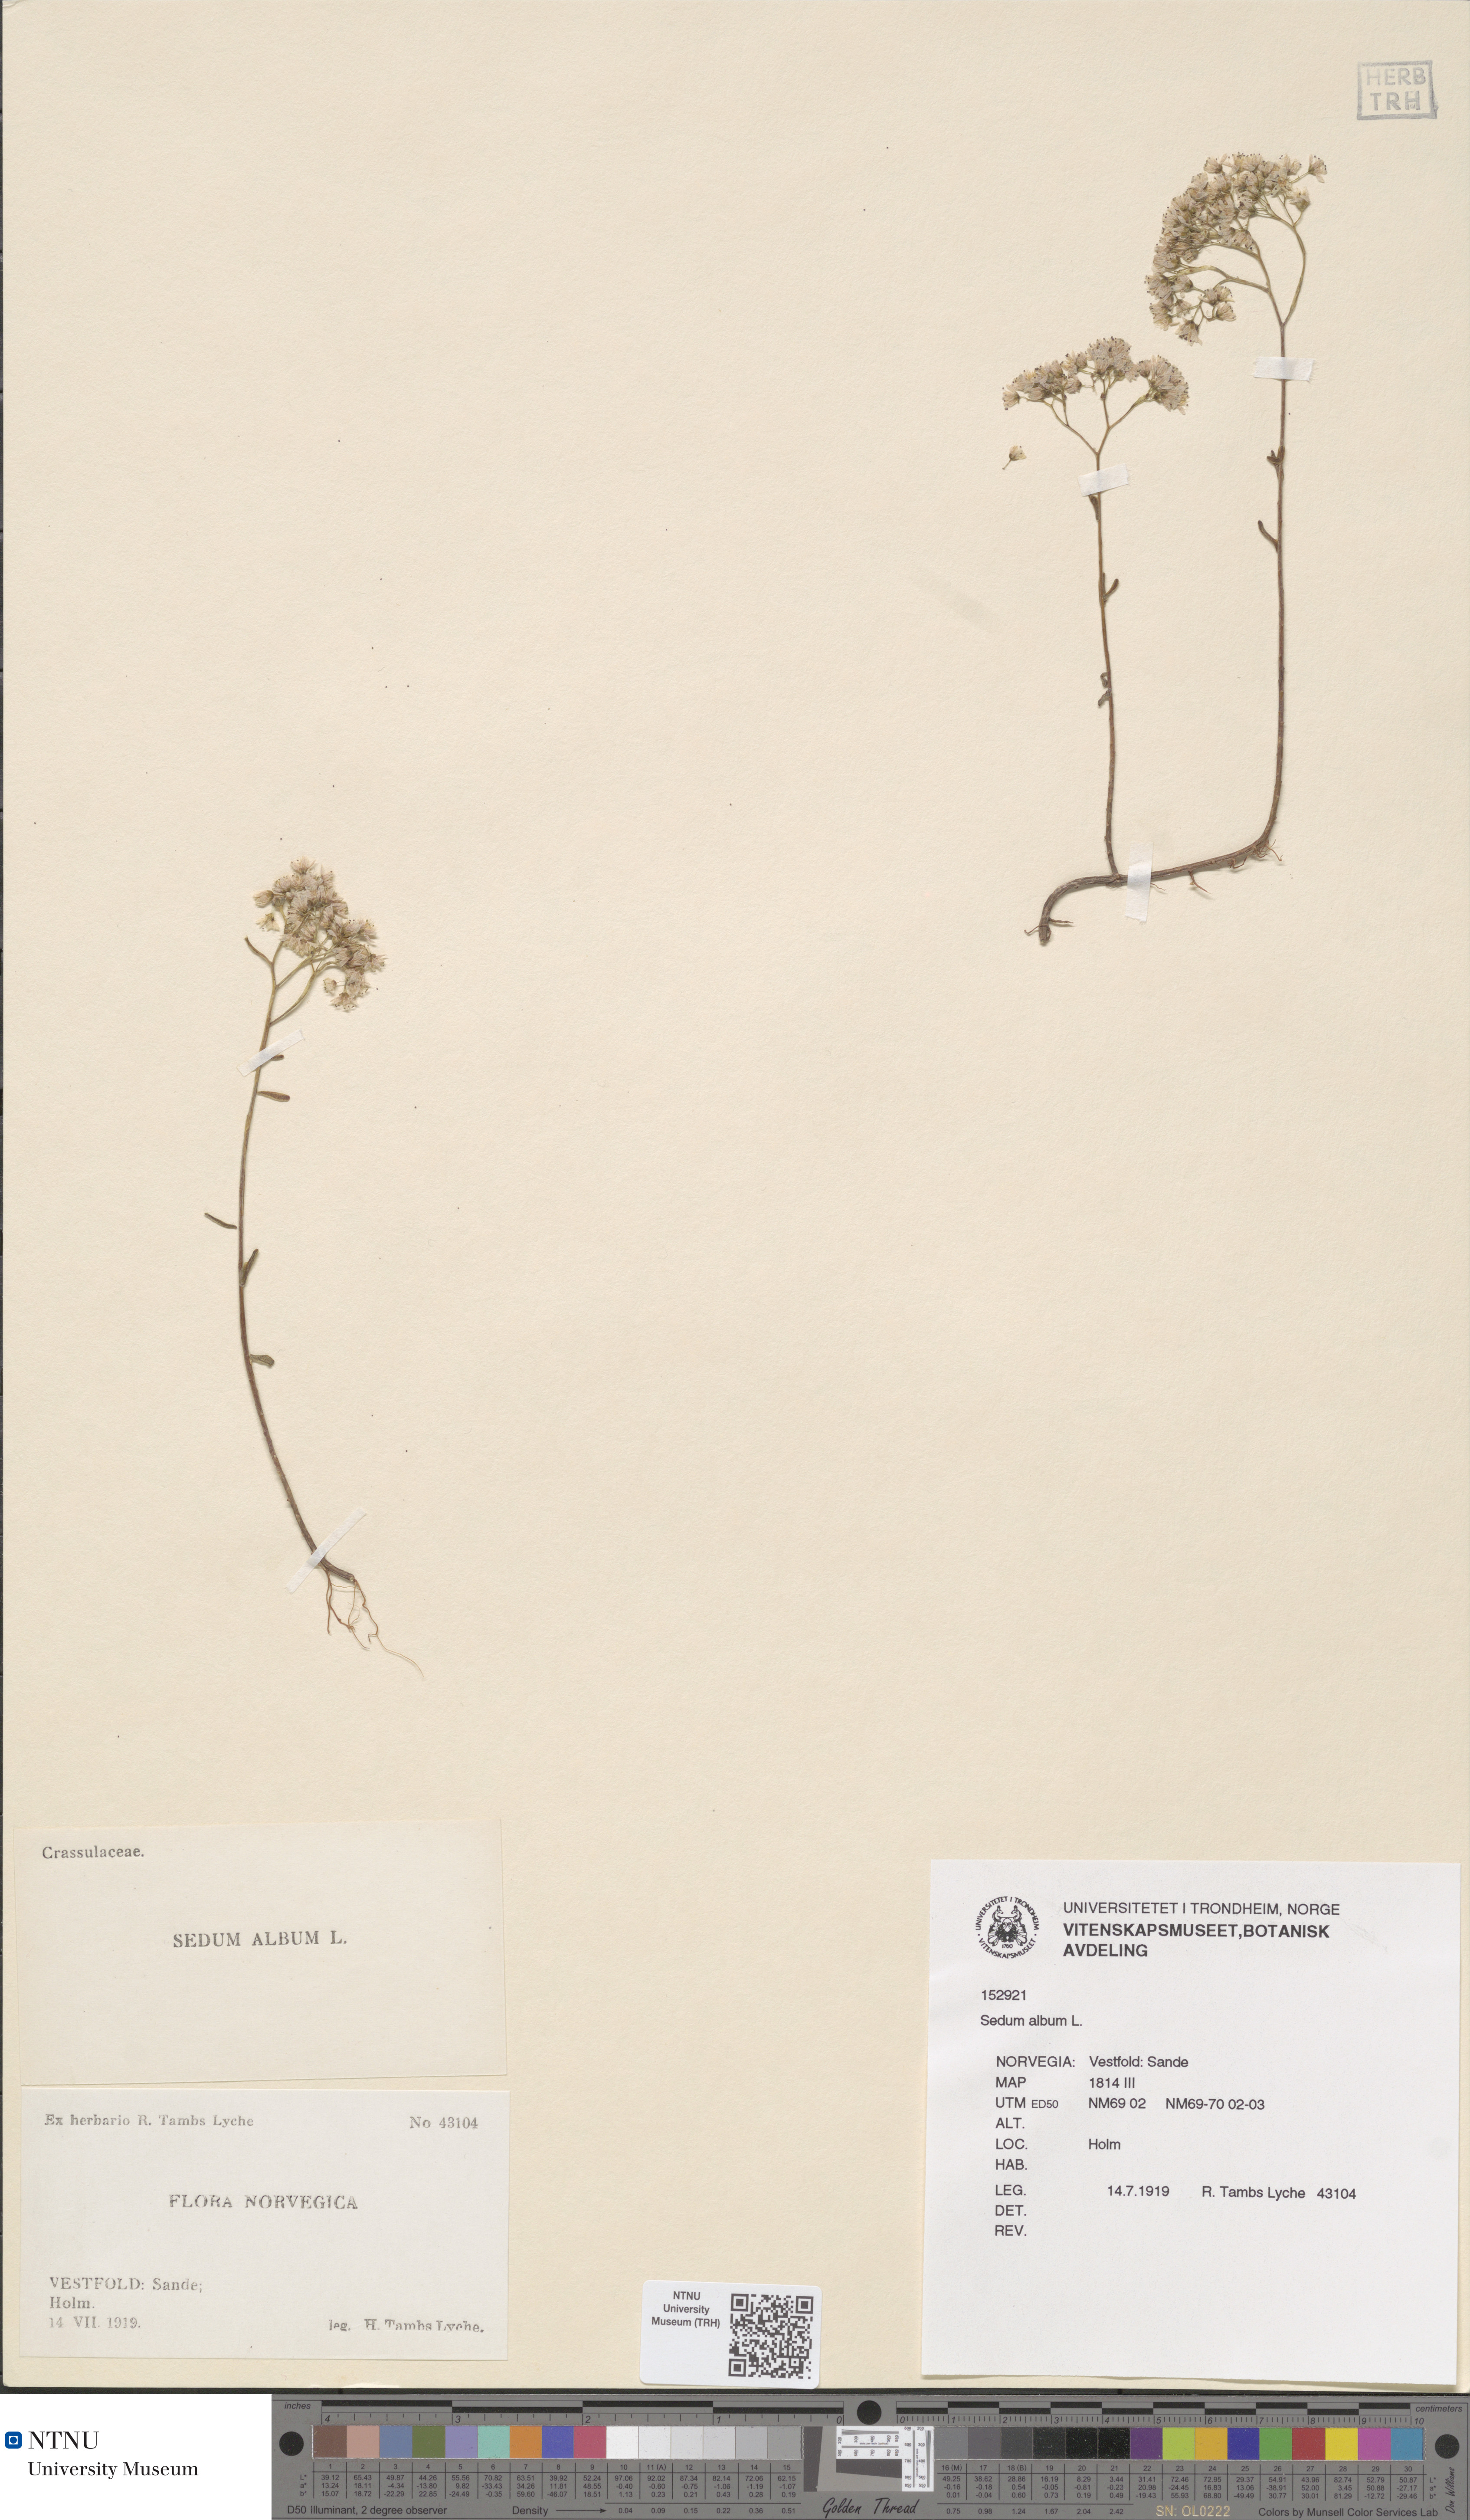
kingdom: Plantae
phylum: Tracheophyta
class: Magnoliopsida
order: Saxifragales
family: Crassulaceae
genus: Sedum
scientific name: Sedum album
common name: White stonecrop
